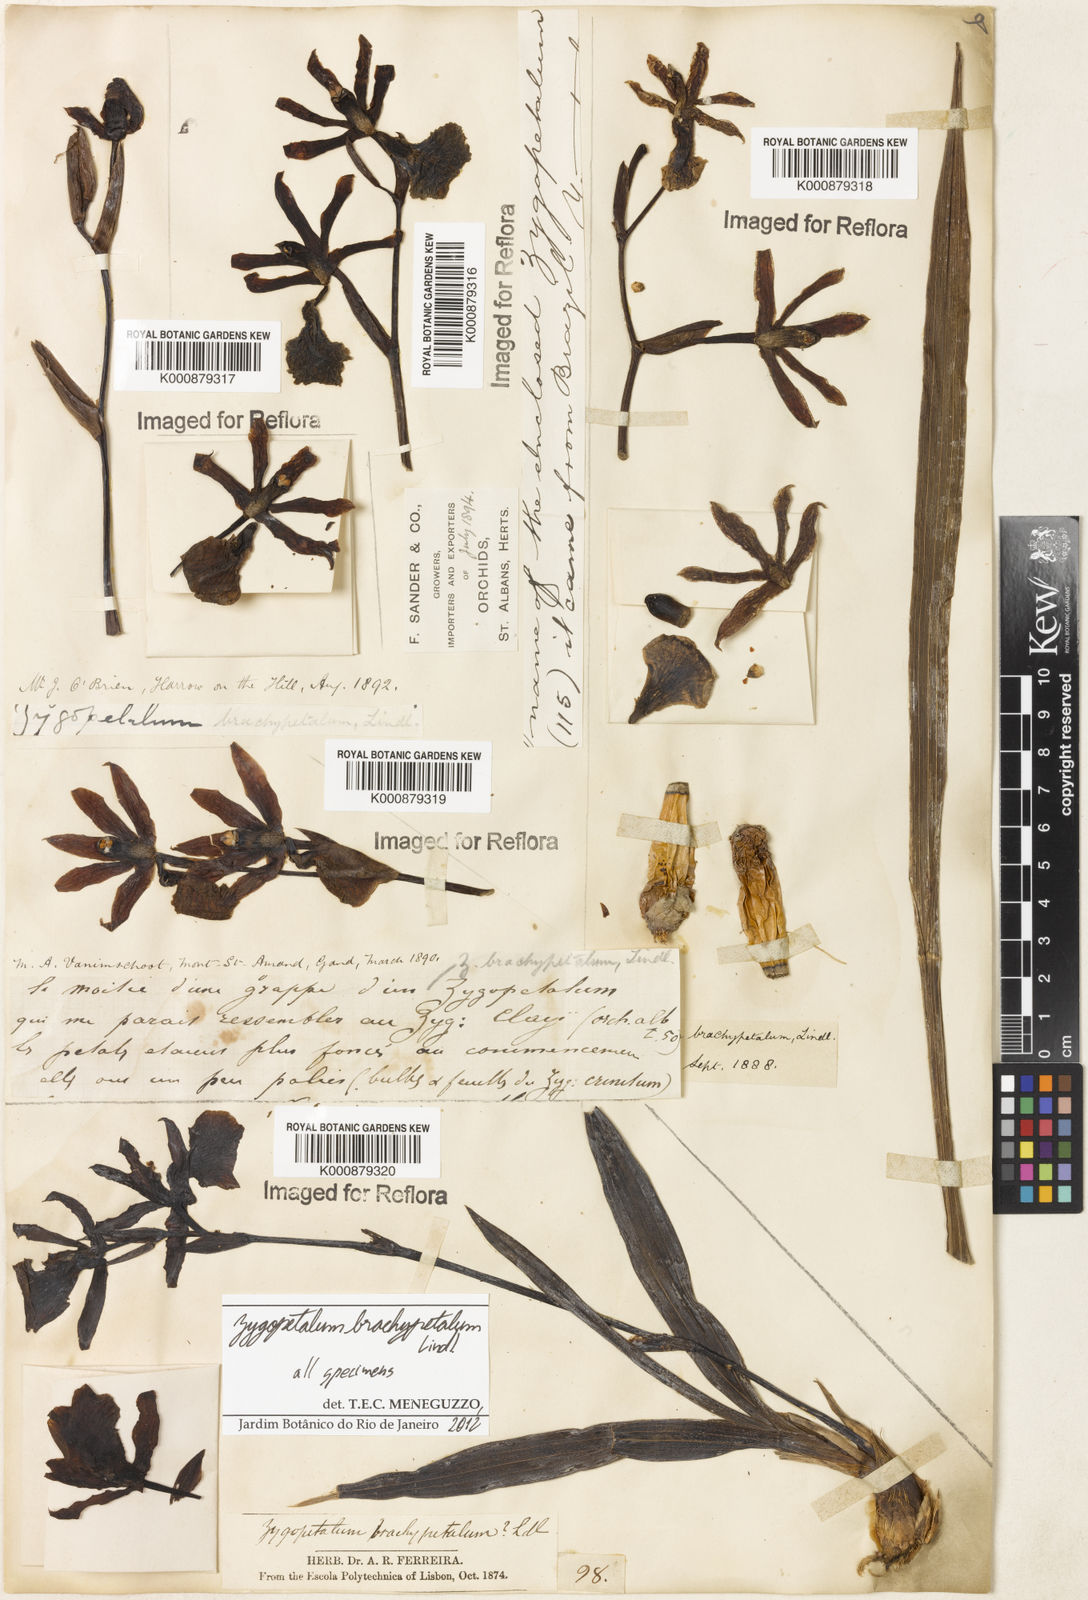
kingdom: Plantae
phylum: Tracheophyta
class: Liliopsida
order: Asparagales
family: Orchidaceae
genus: Zygopetalum
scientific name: Zygopetalum brachypetalum
